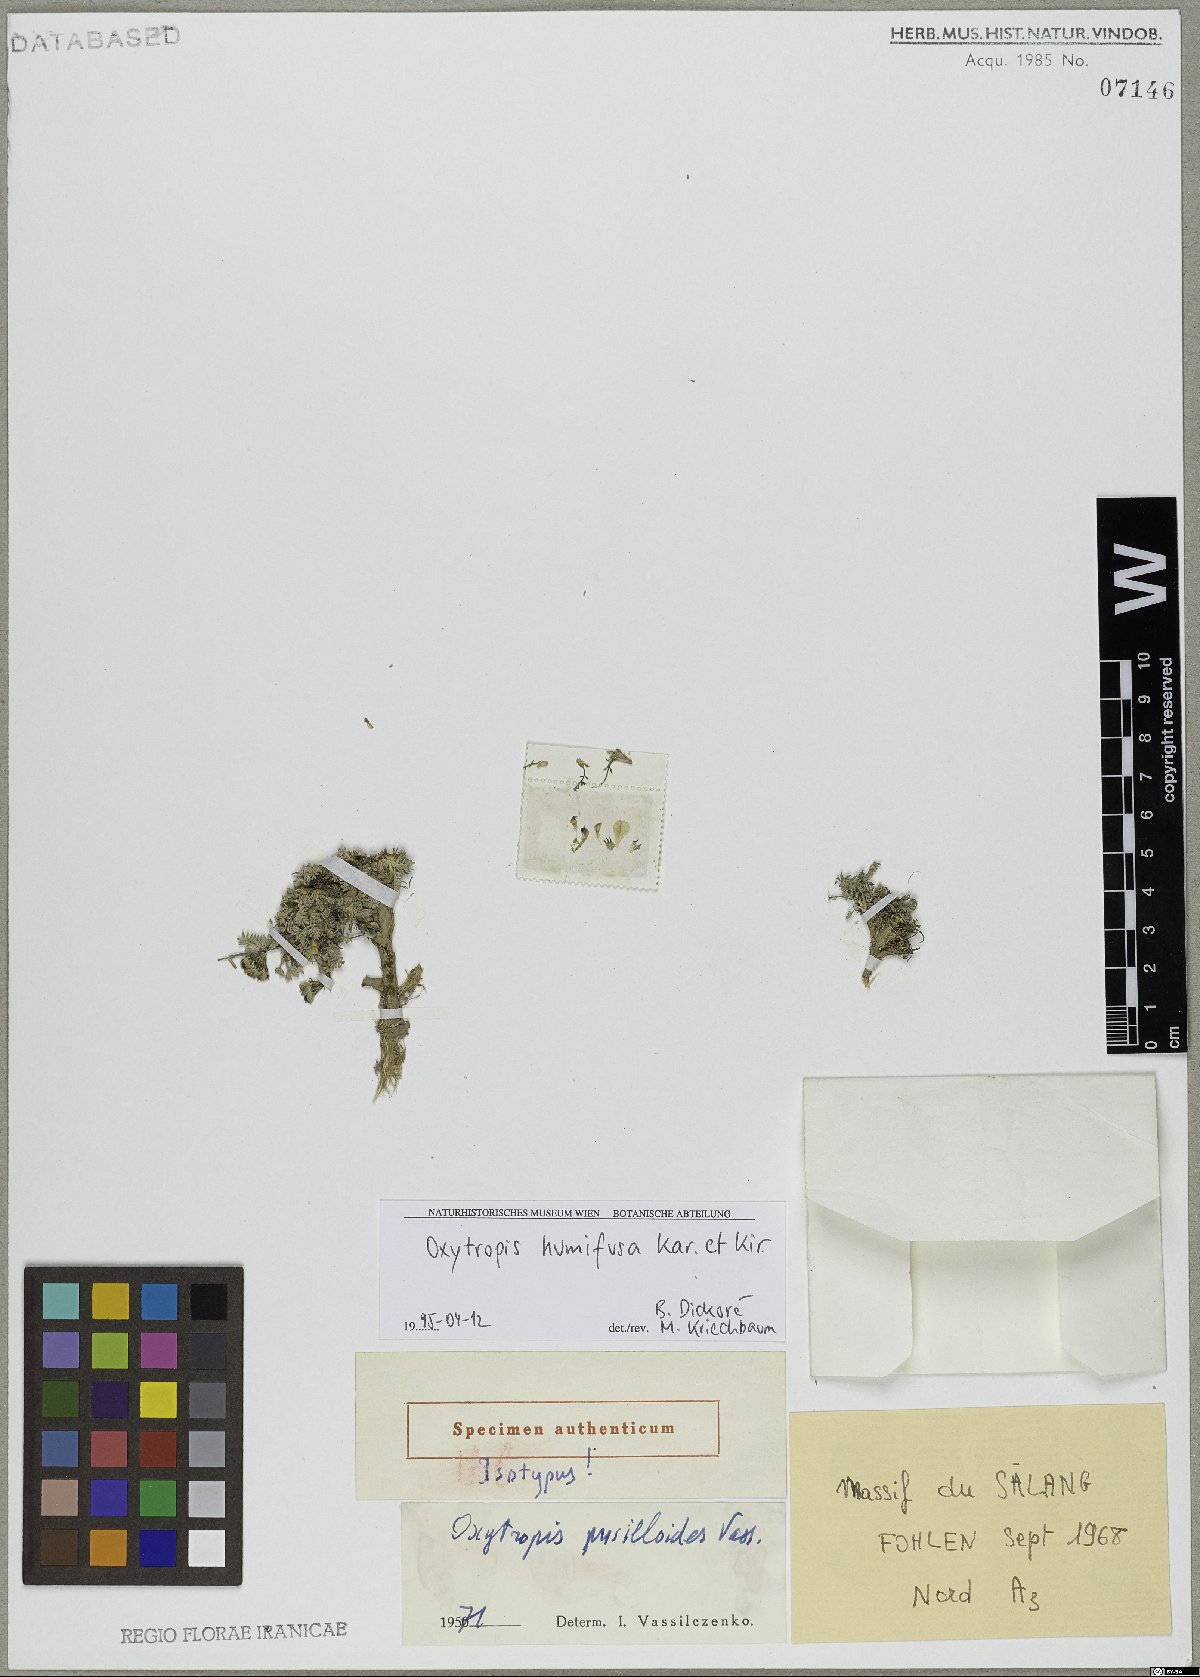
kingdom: Plantae
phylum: Tracheophyta
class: Magnoliopsida
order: Fabales
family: Fabaceae
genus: Astragalus
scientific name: Astragalus daenensis
